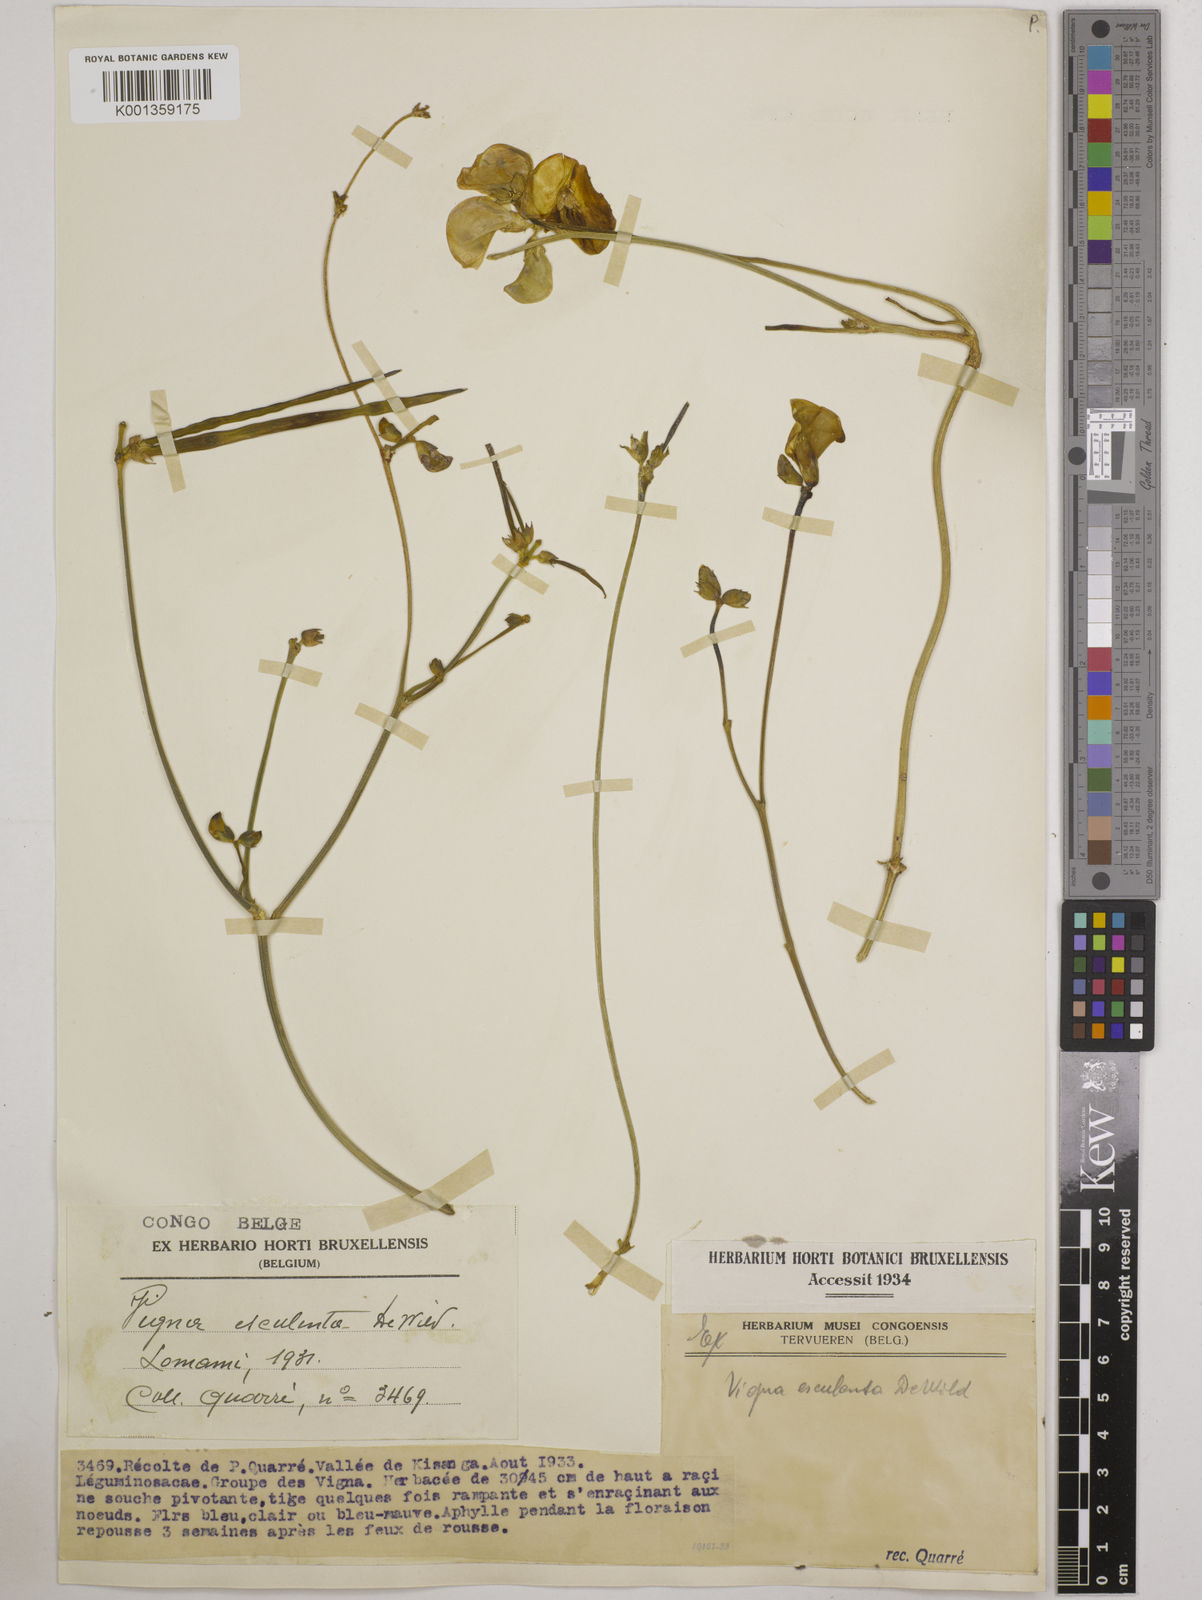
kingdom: Plantae
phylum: Tracheophyta
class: Magnoliopsida
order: Fabales
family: Fabaceae
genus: Vigna
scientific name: Vigna frutescens
